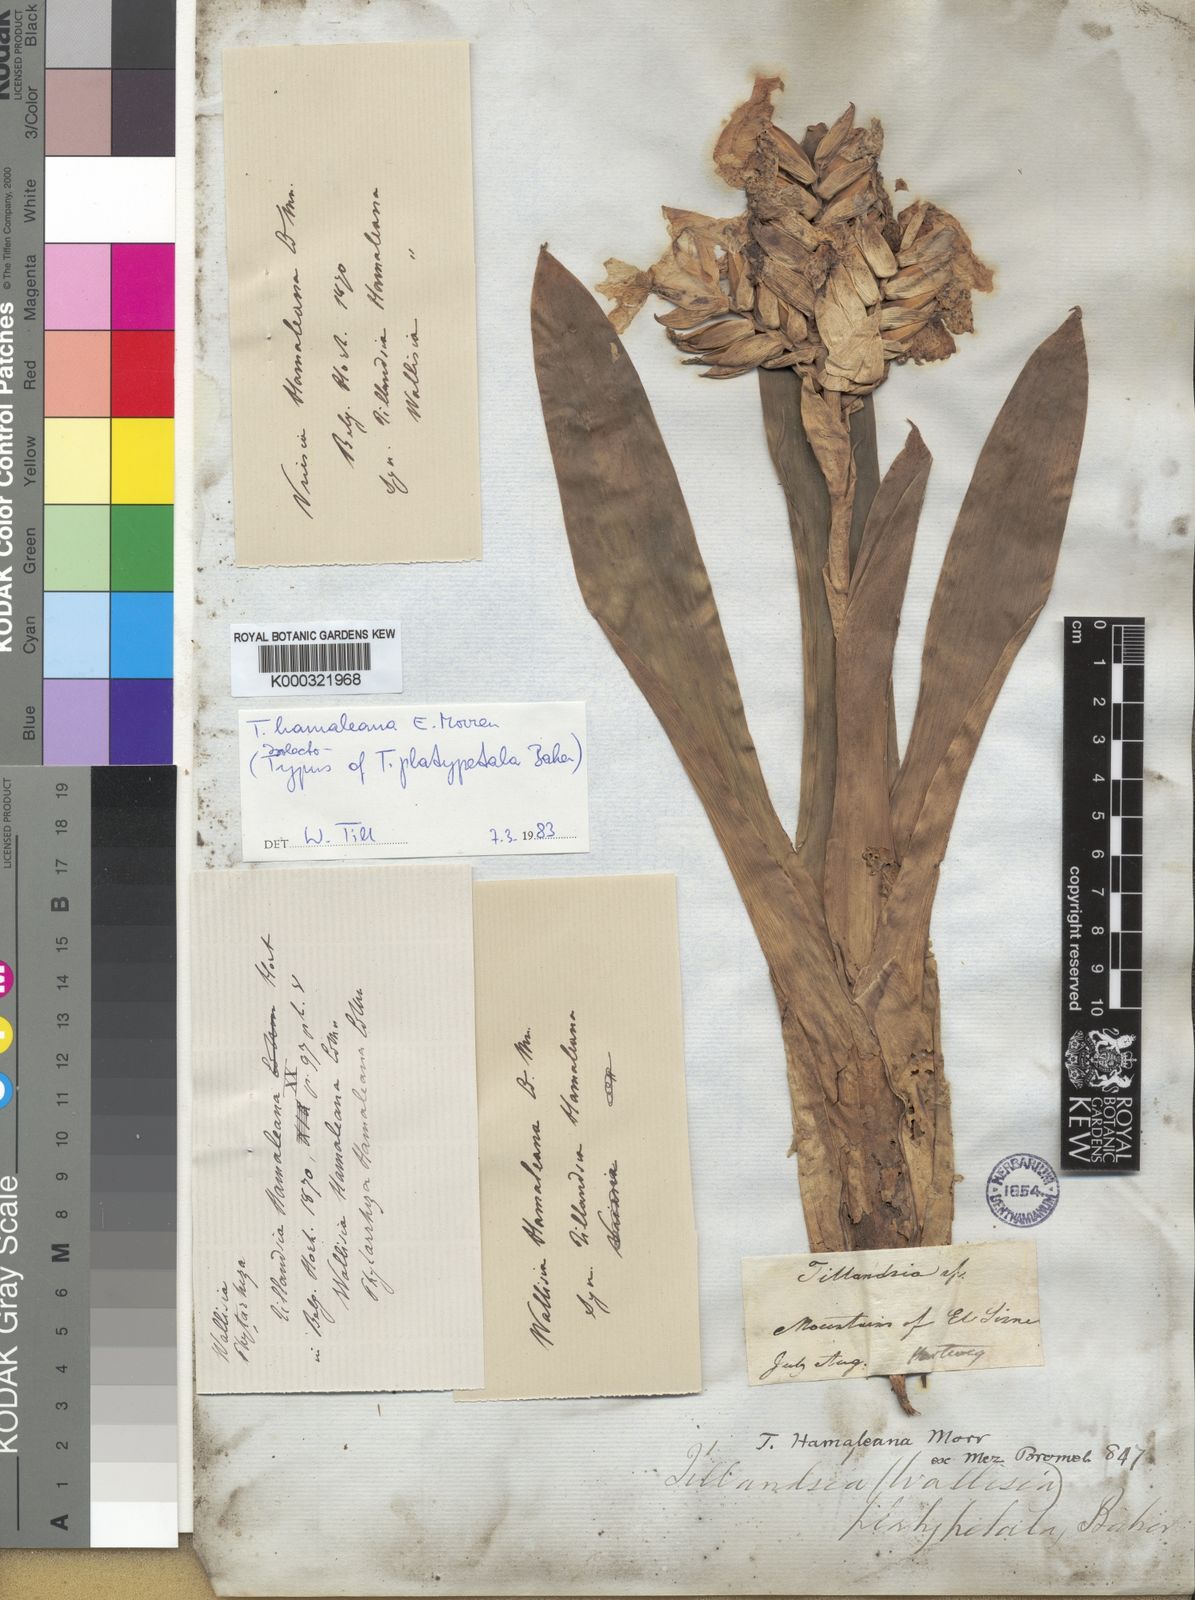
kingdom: Plantae
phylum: Tracheophyta
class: Liliopsida
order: Poales
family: Bromeliaceae
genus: Racinaea
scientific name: Racinaea hamaleana
